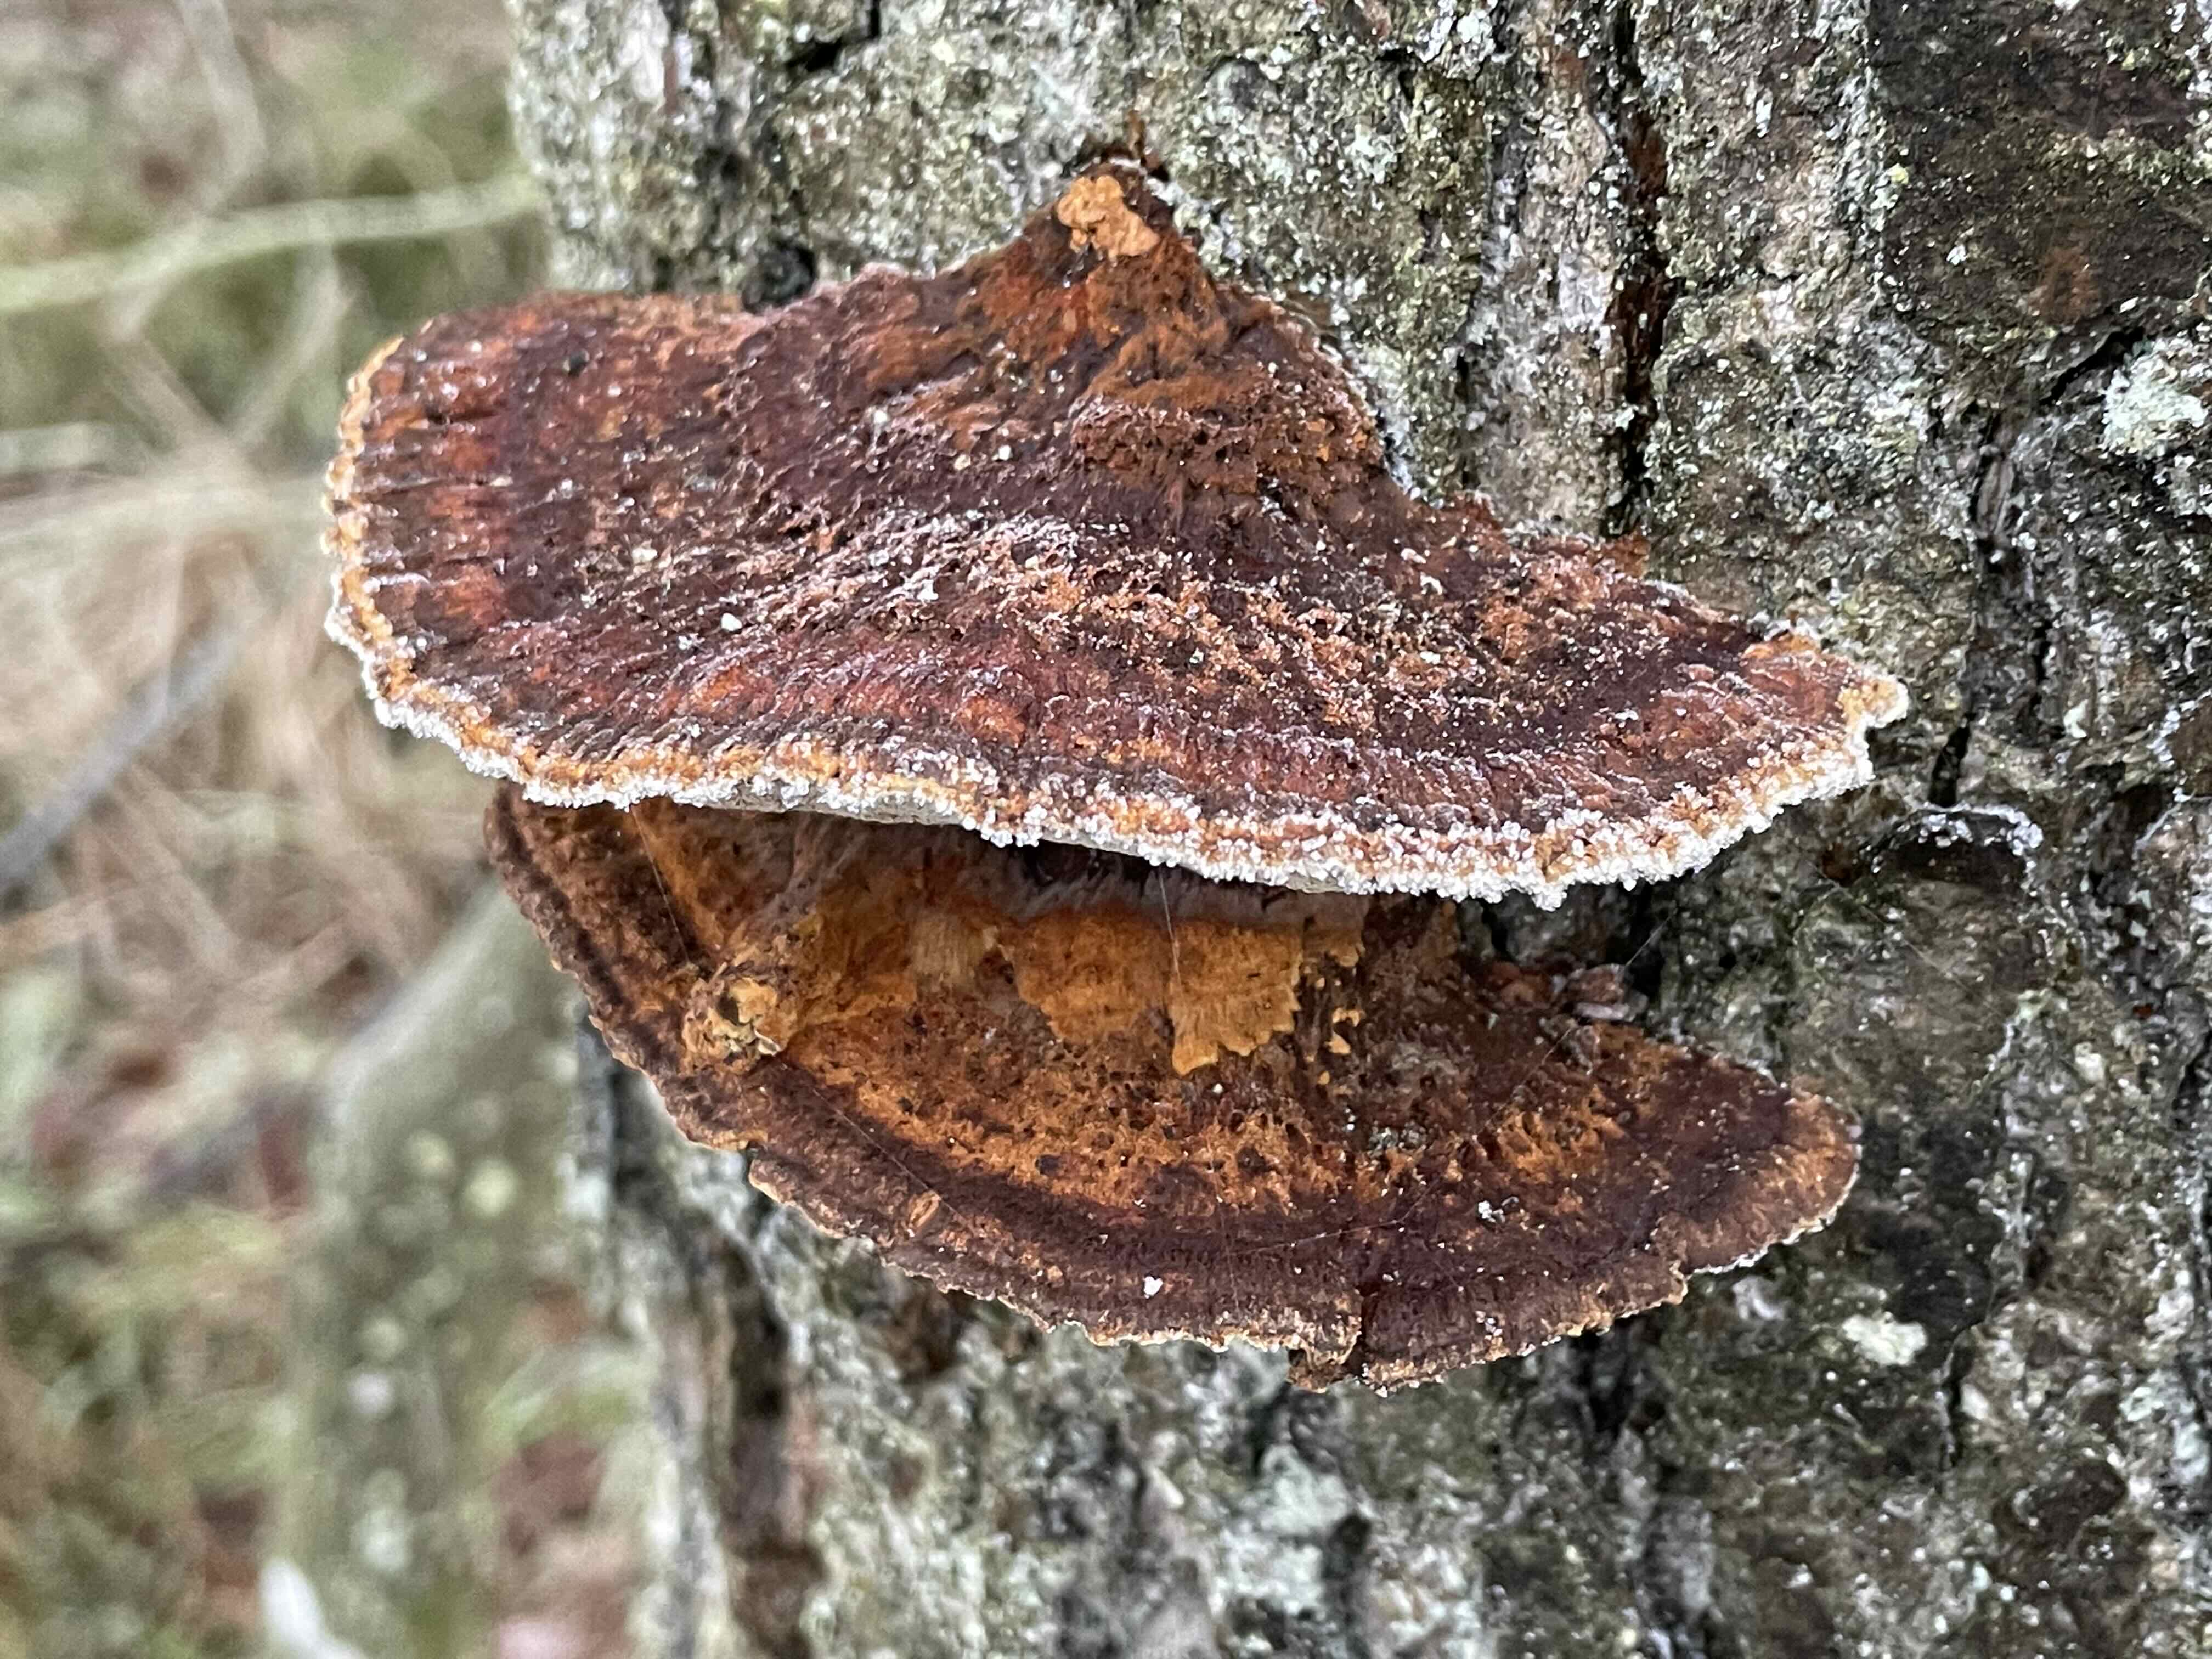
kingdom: Fungi
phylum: Basidiomycota
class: Agaricomycetes
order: Hymenochaetales
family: Hymenochaetaceae
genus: Xanthoporia
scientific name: Xanthoporia radiata
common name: elle-spejlporesvamp
